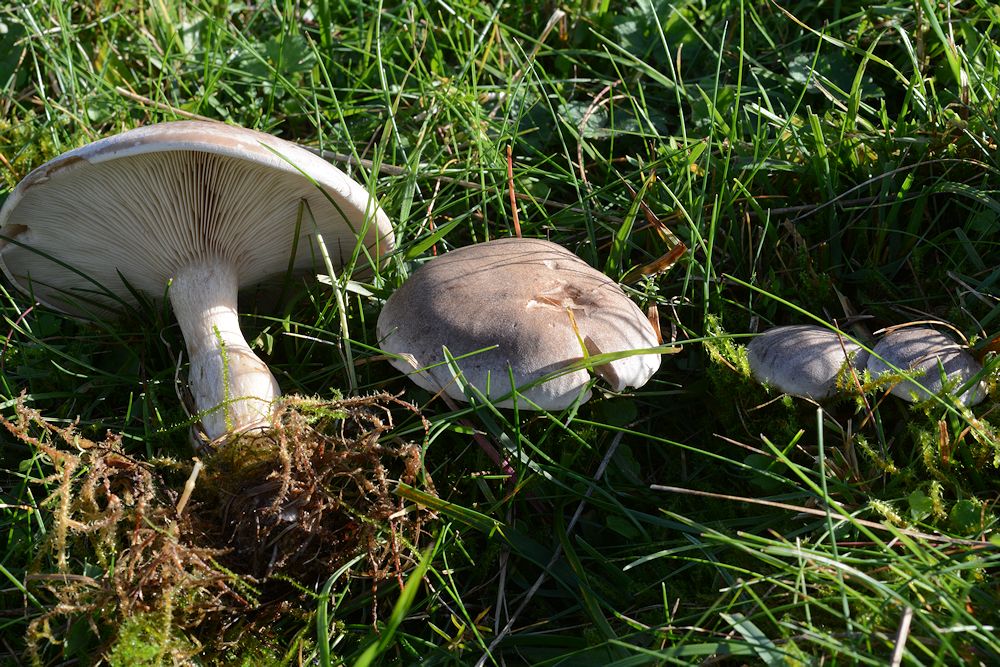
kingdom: Fungi
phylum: Basidiomycota
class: Agaricomycetes
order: Agaricales
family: Hygrophoraceae
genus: Ampulloclitocybe
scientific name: Ampulloclitocybe clavipes
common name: køllefod
